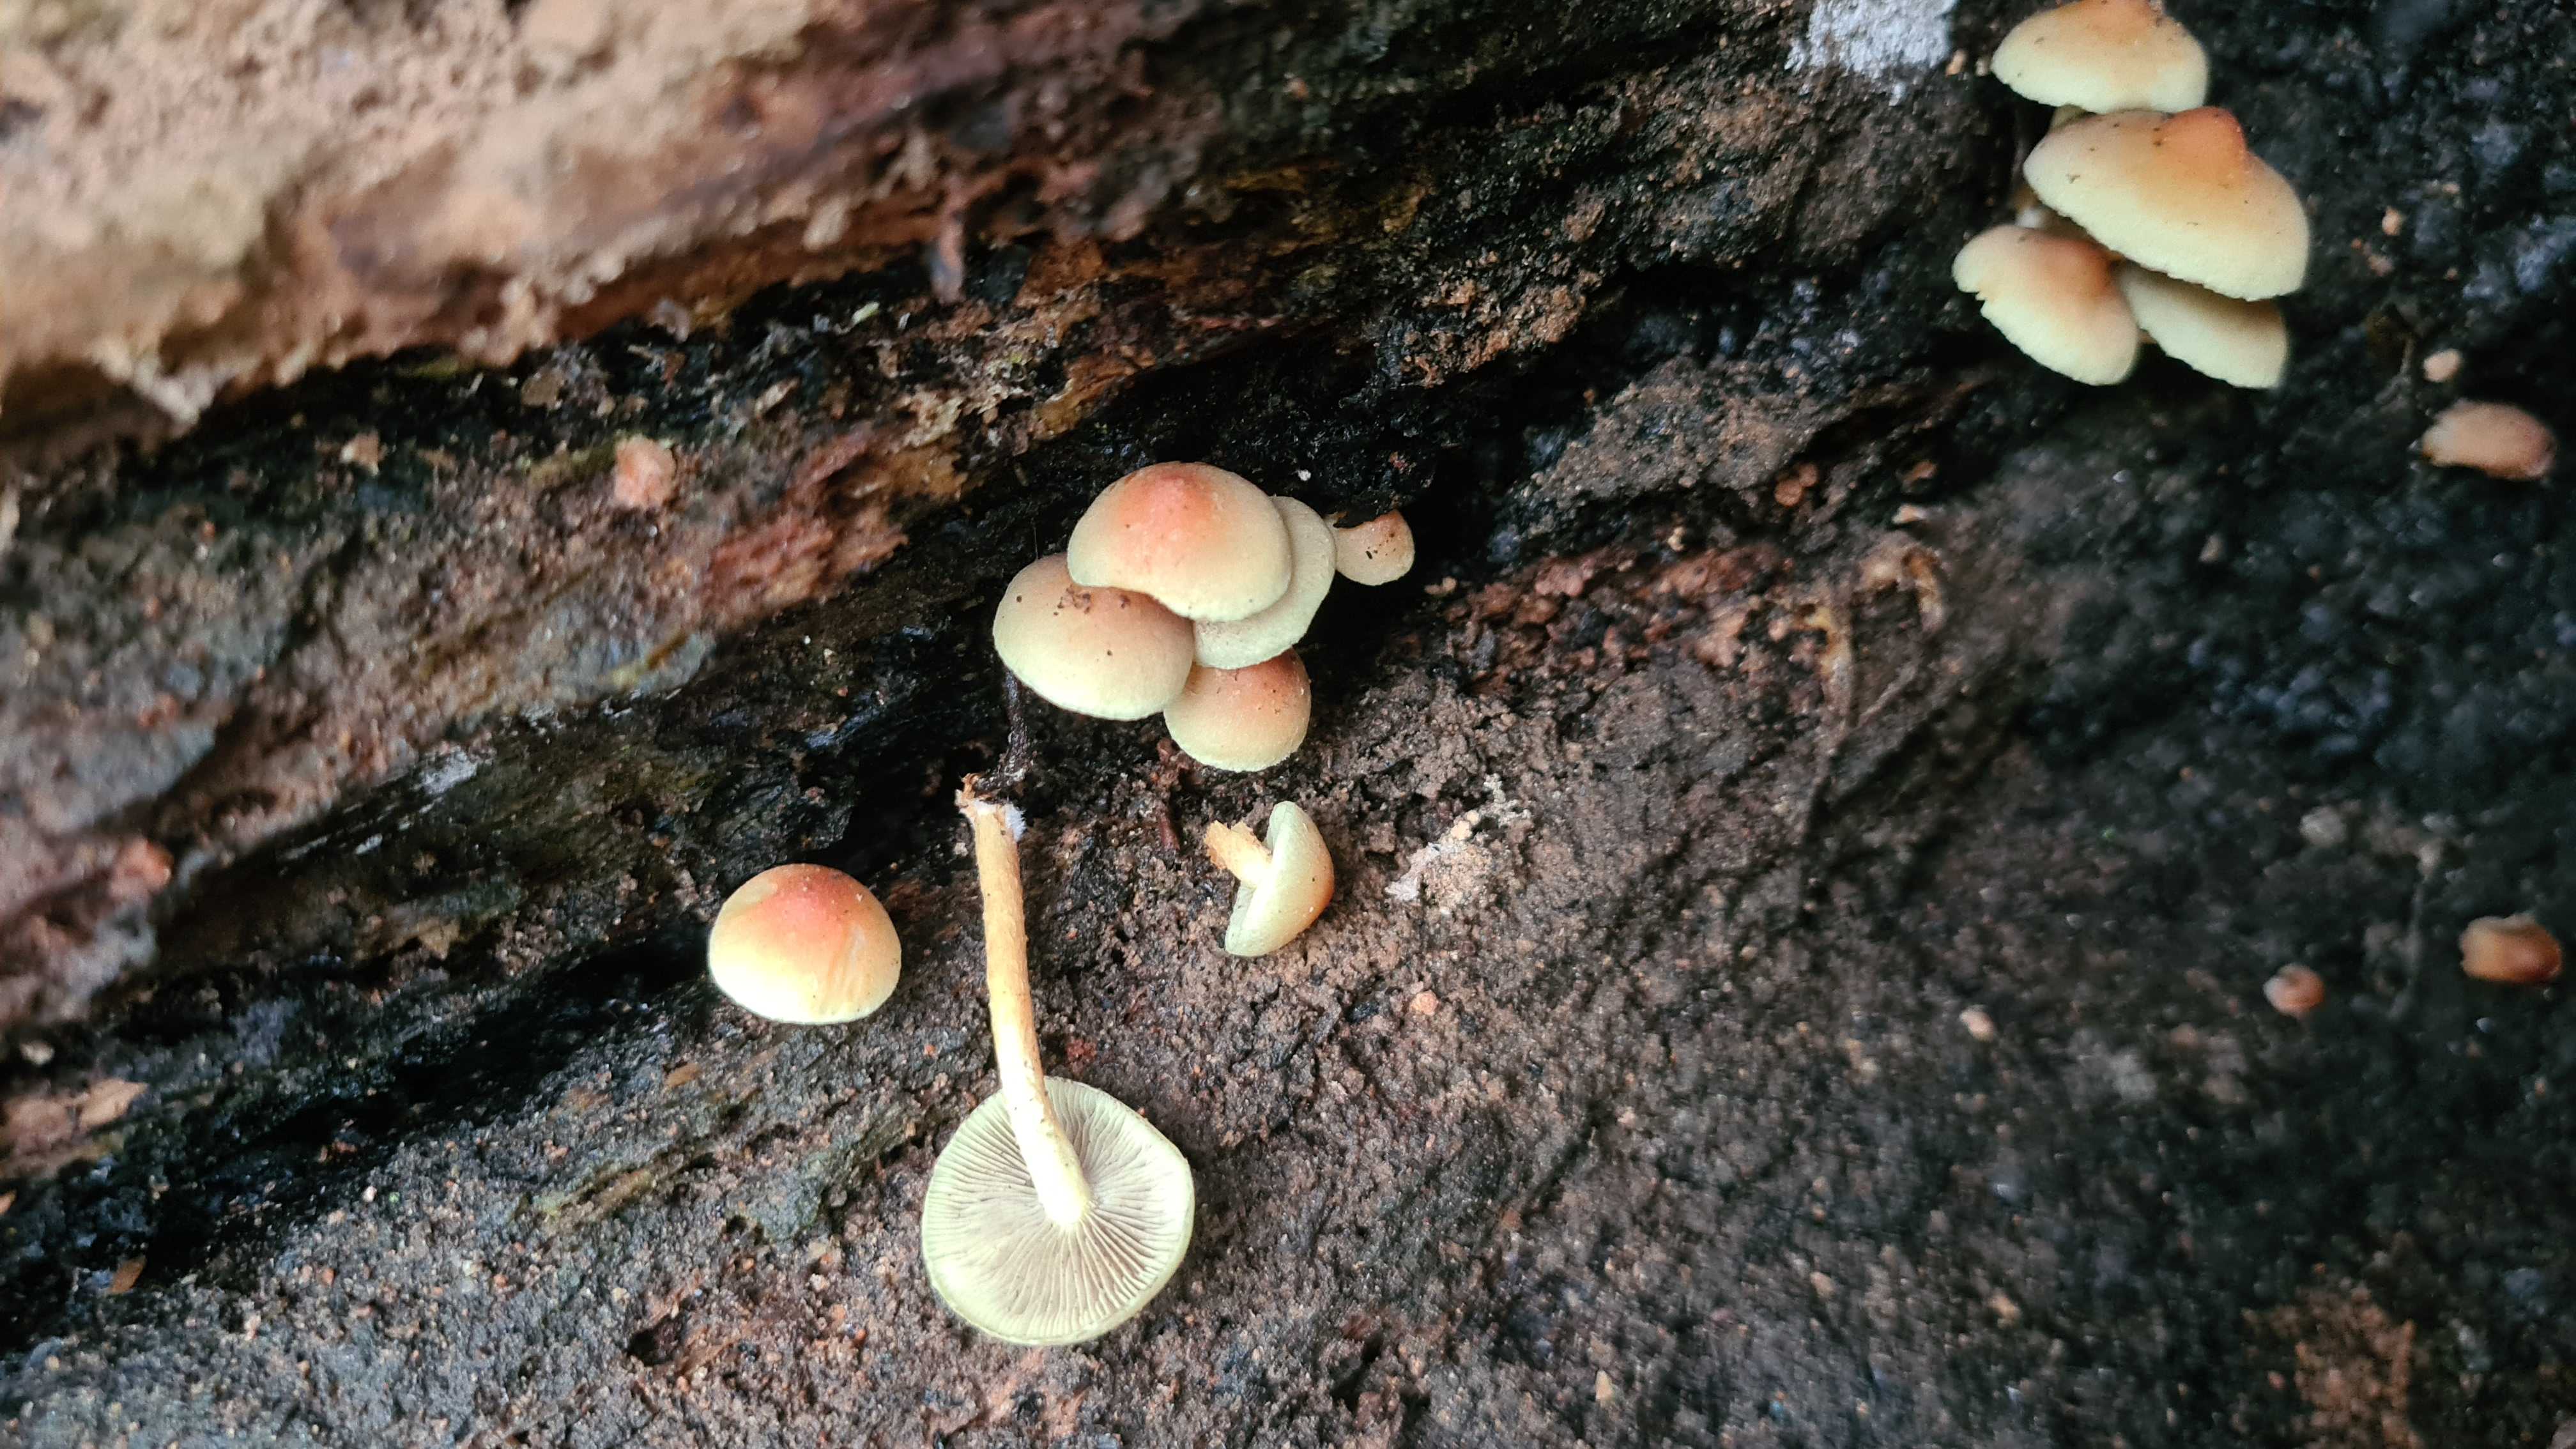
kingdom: Fungi
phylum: Basidiomycota
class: Agaricomycetes
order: Agaricales
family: Strophariaceae
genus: Hypholoma
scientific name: Hypholoma fasciculare
